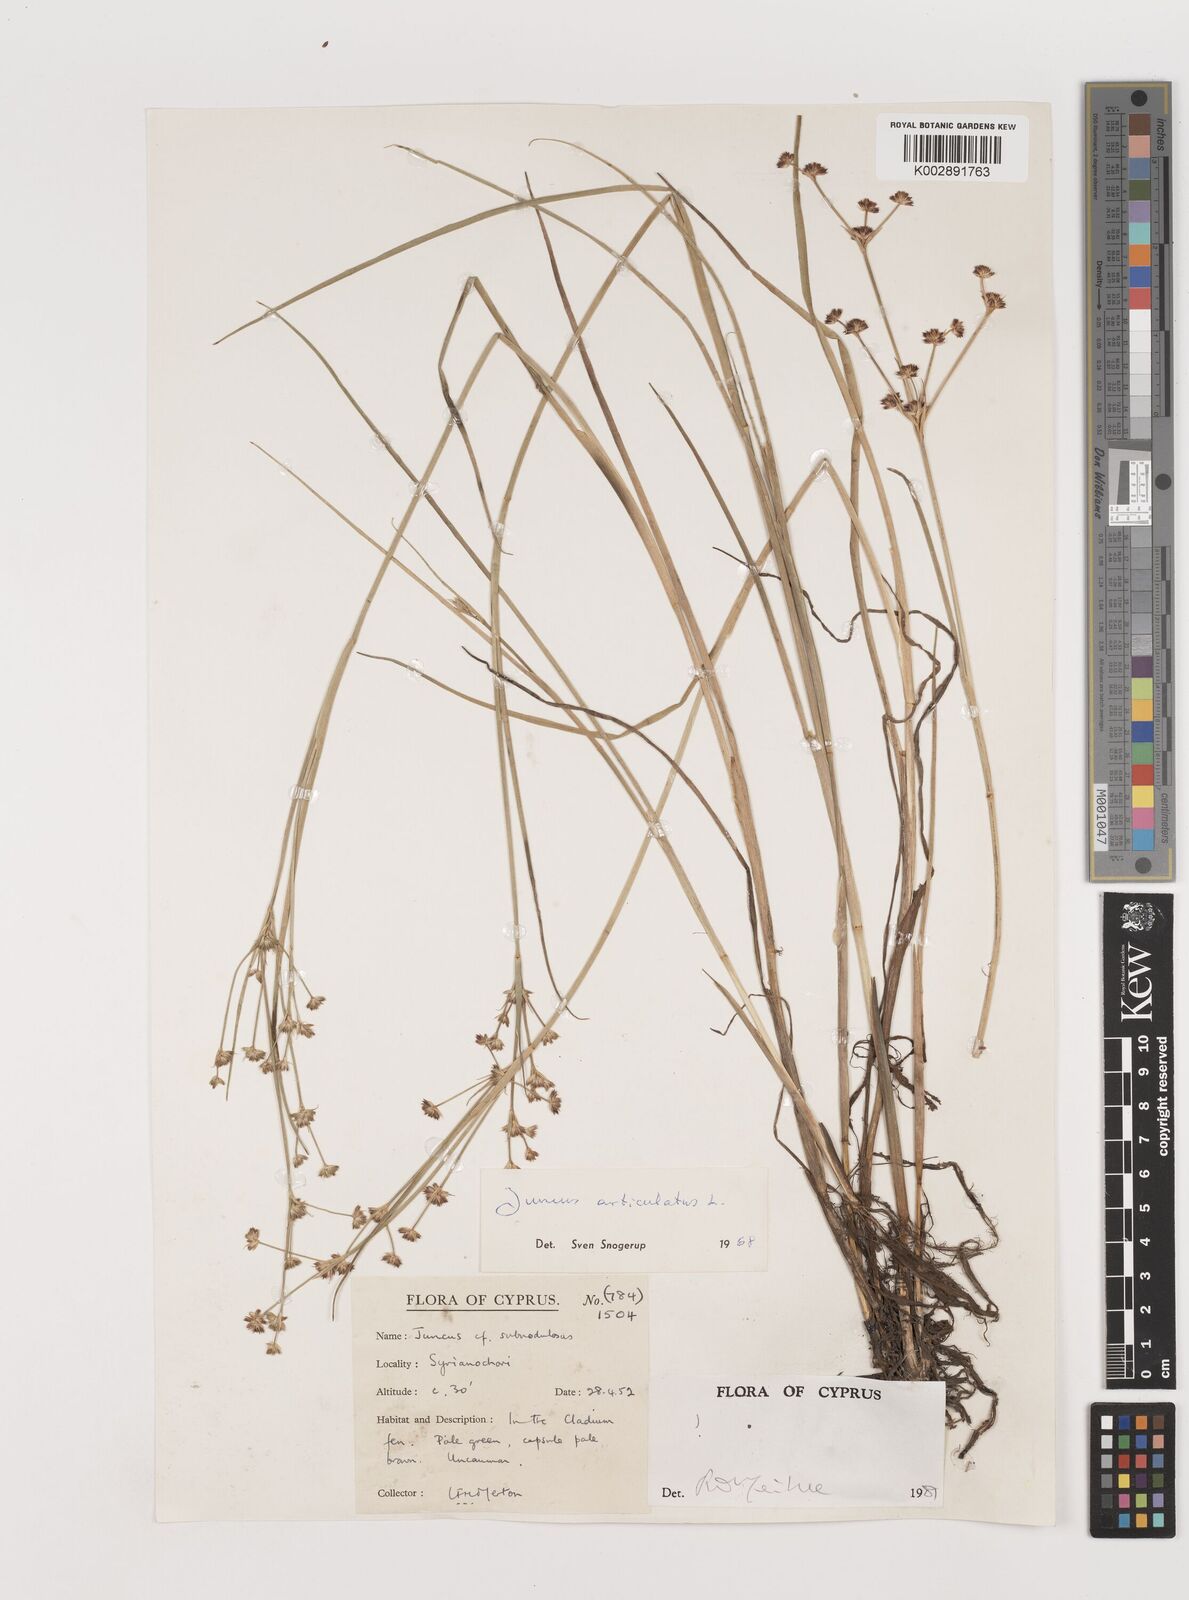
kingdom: Plantae
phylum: Tracheophyta
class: Liliopsida
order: Poales
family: Juncaceae
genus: Juncus
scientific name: Juncus articulatus
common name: Jointed rush
